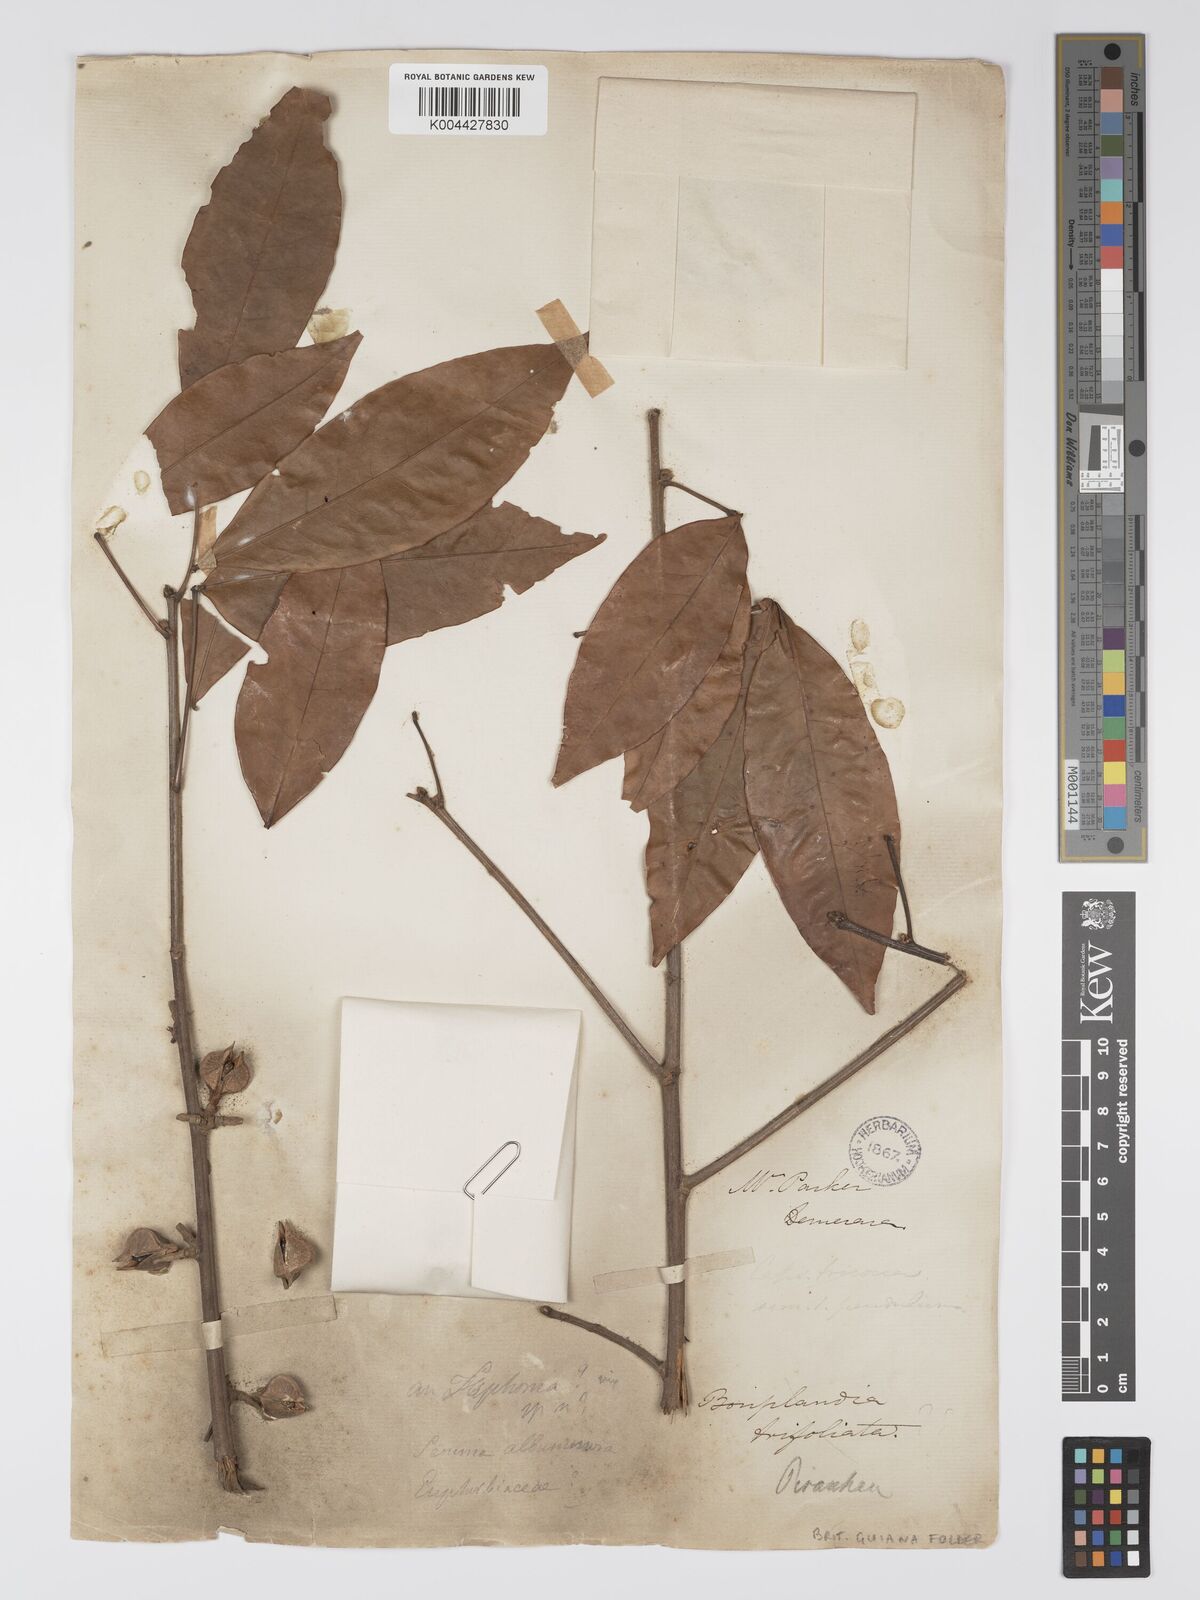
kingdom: Plantae
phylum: Tracheophyta
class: Magnoliopsida
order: Malpighiales
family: Picrodendraceae
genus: Piranhea
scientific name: Piranhea trifoliolata
